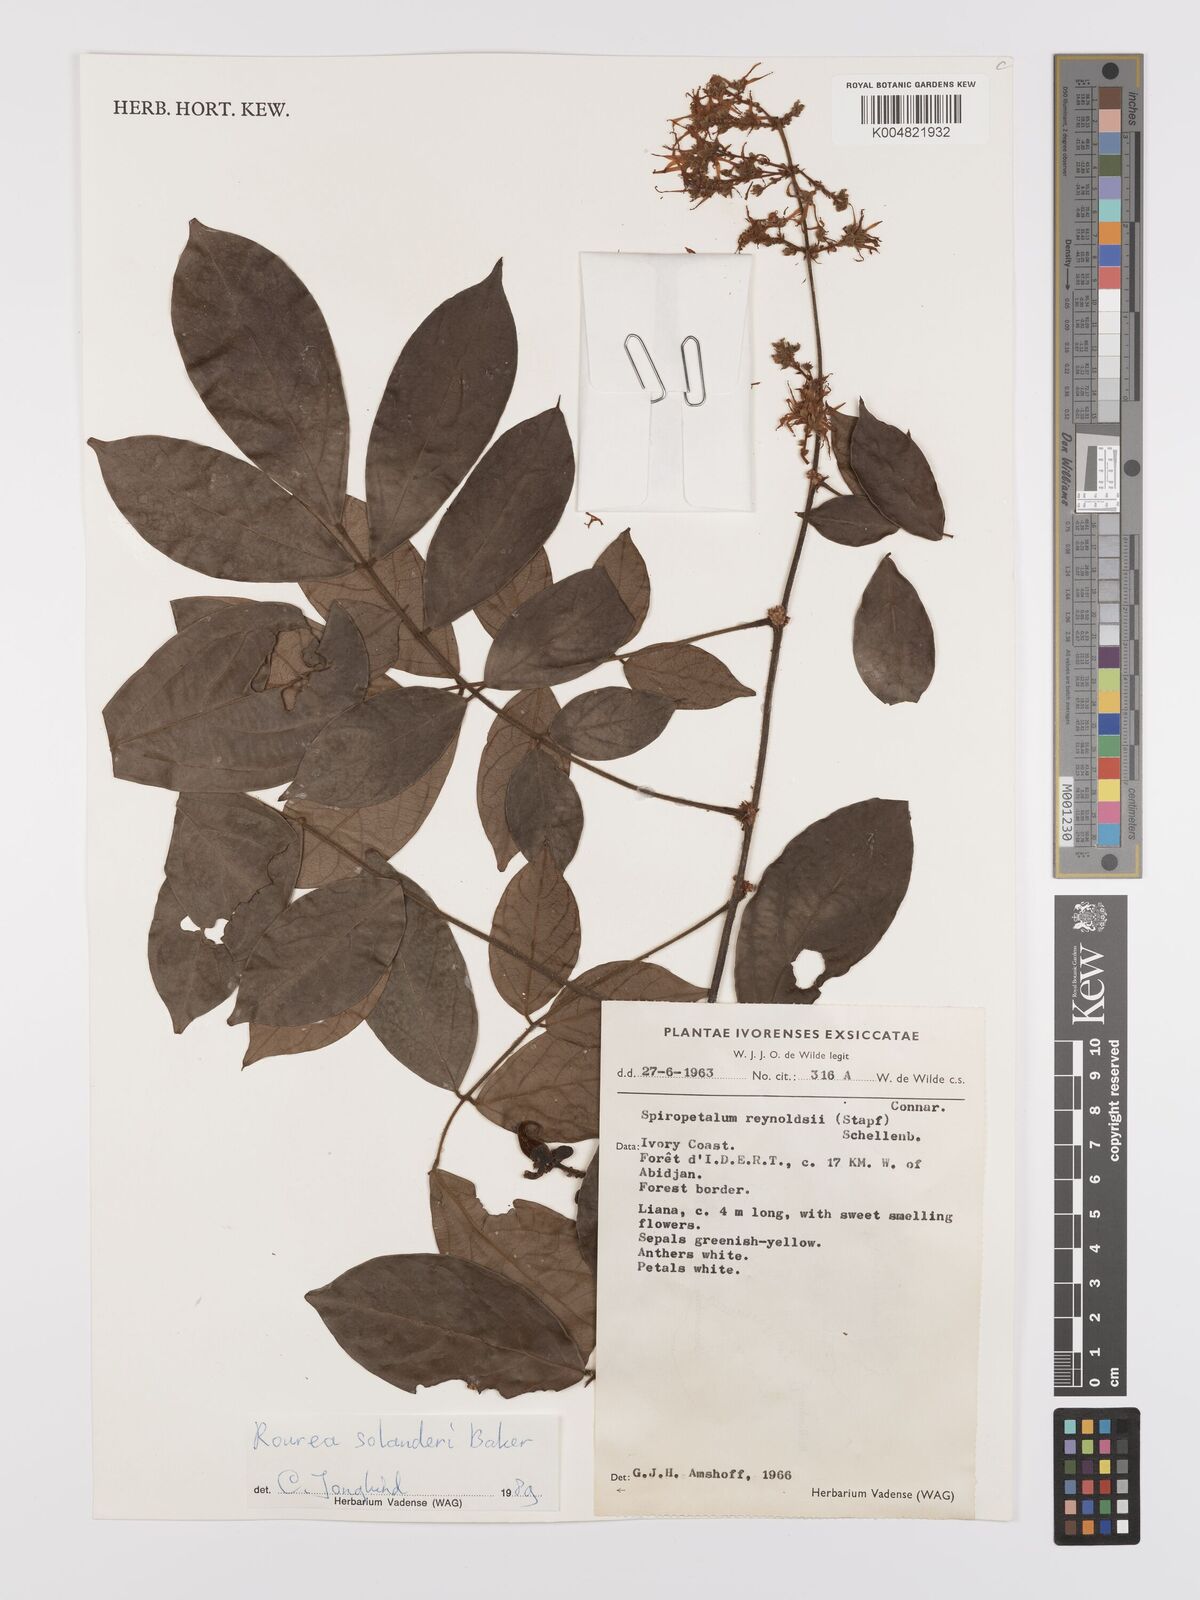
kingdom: Plantae
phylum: Tracheophyta
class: Magnoliopsida
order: Oxalidales
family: Connaraceae
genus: Rourea
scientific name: Rourea solanderi
